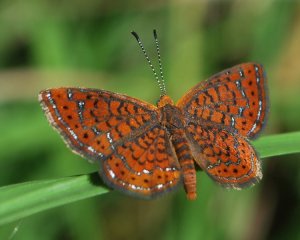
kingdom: Animalia
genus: Calephelis
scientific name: Calephelis virginiensis
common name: Little Metalmark
